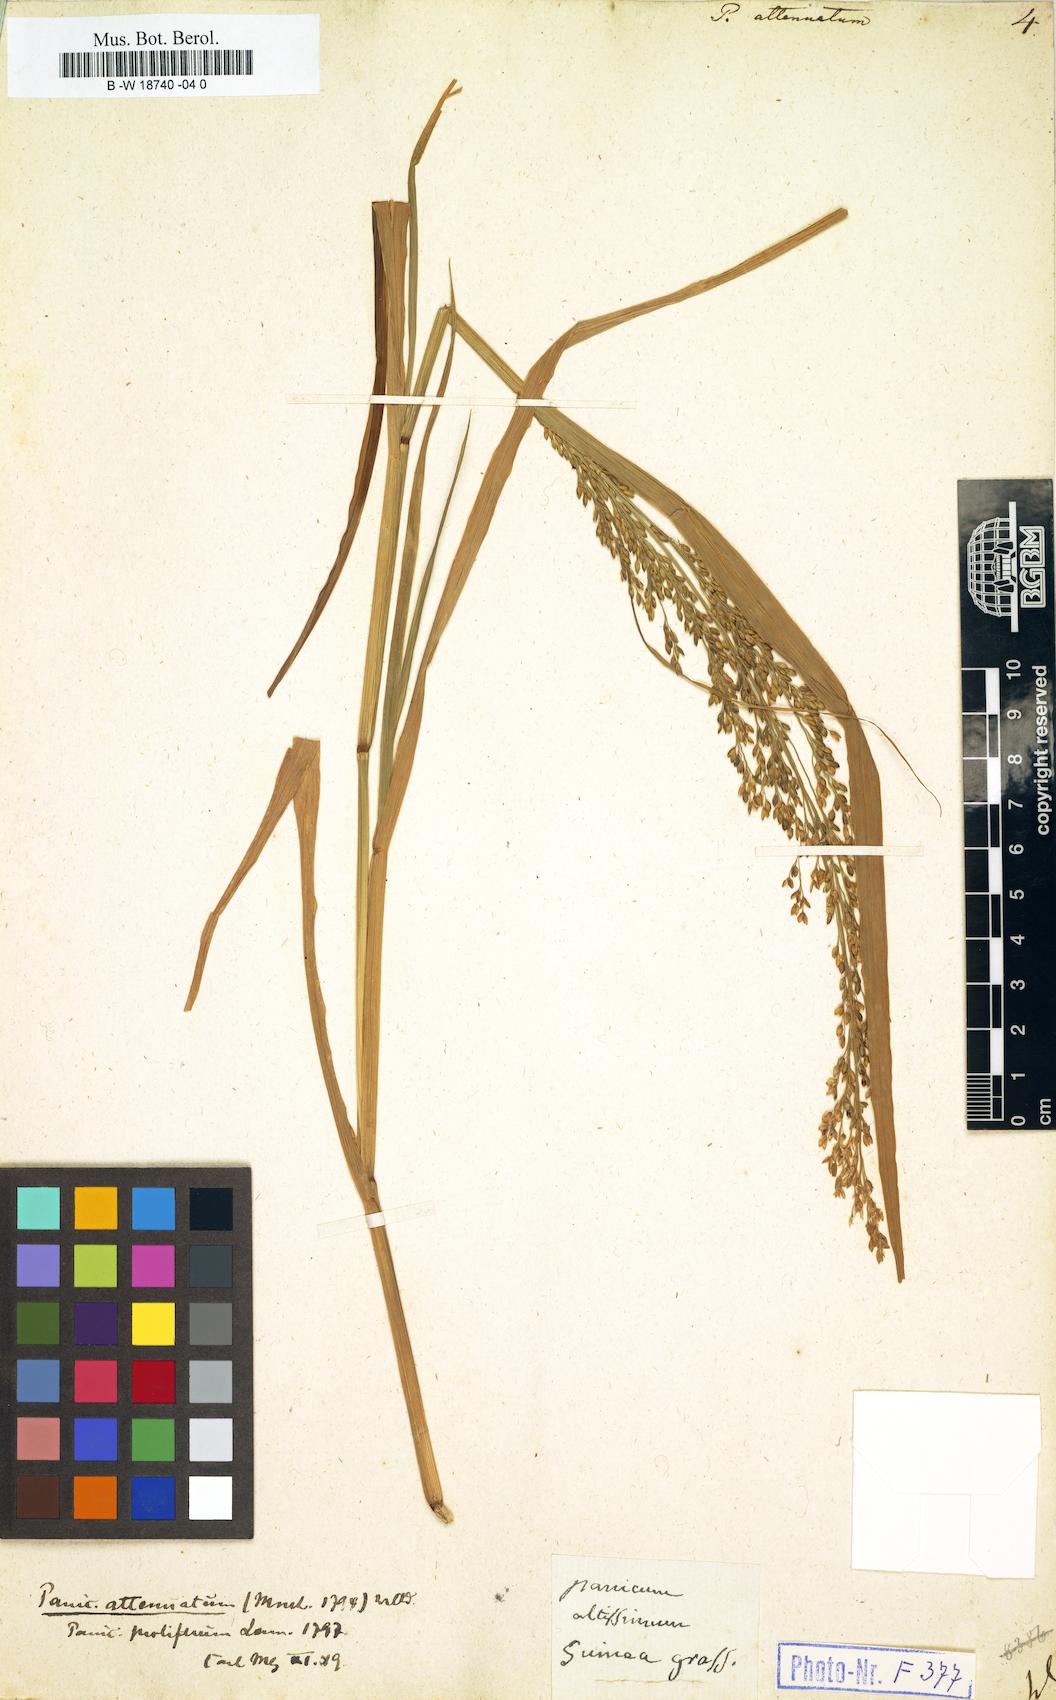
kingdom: Plantae
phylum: Tracheophyta
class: Liliopsida
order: Poales
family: Poaceae
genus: Panicum
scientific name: Panicum sumatrense
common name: Little millet
